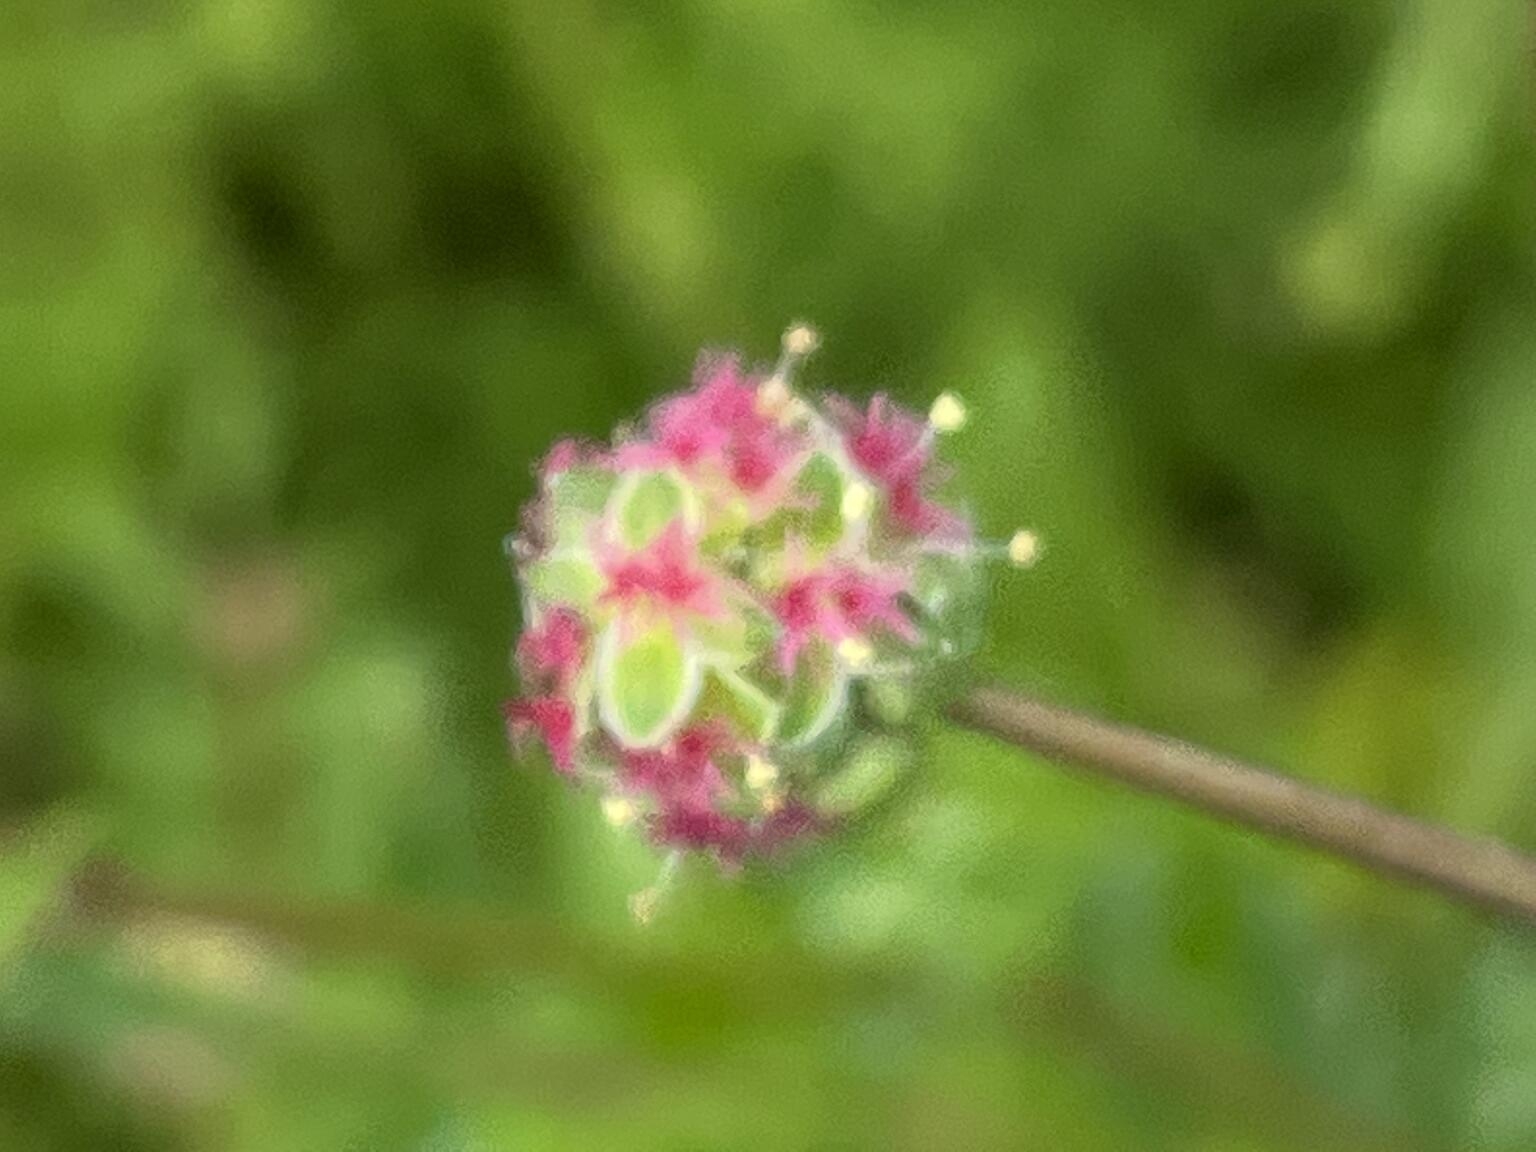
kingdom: Plantae
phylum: Tracheophyta
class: Magnoliopsida
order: Rosales
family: Rosaceae
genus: Poterium
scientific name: Poterium sanguisorba
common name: Bibernelle
